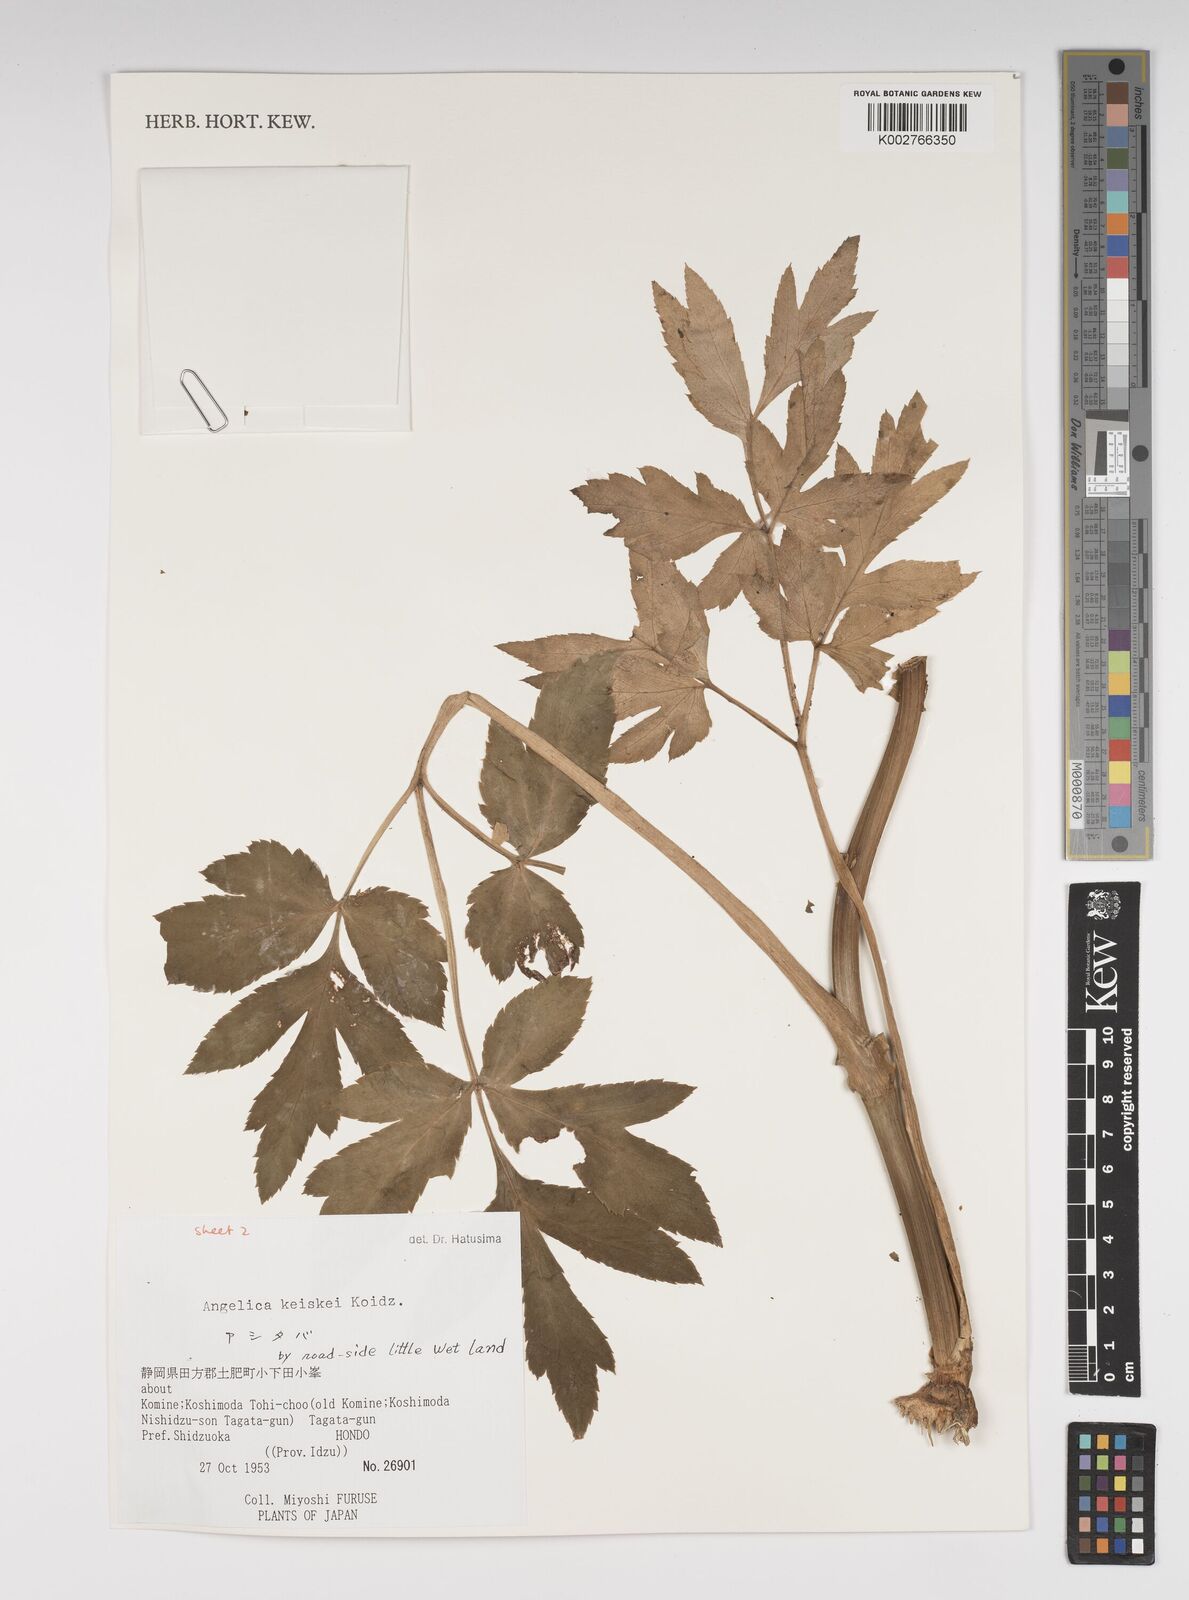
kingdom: Plantae
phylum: Tracheophyta
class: Magnoliopsida
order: Apiales
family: Apiaceae
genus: Angelica
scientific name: Angelica keiskei
